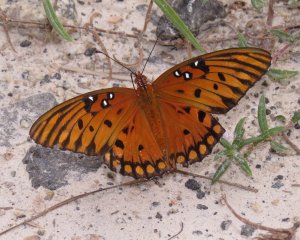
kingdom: Animalia
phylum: Arthropoda
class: Insecta
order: Lepidoptera
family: Nymphalidae
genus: Dione
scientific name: Dione vanillae
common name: Gulf Fritillary
